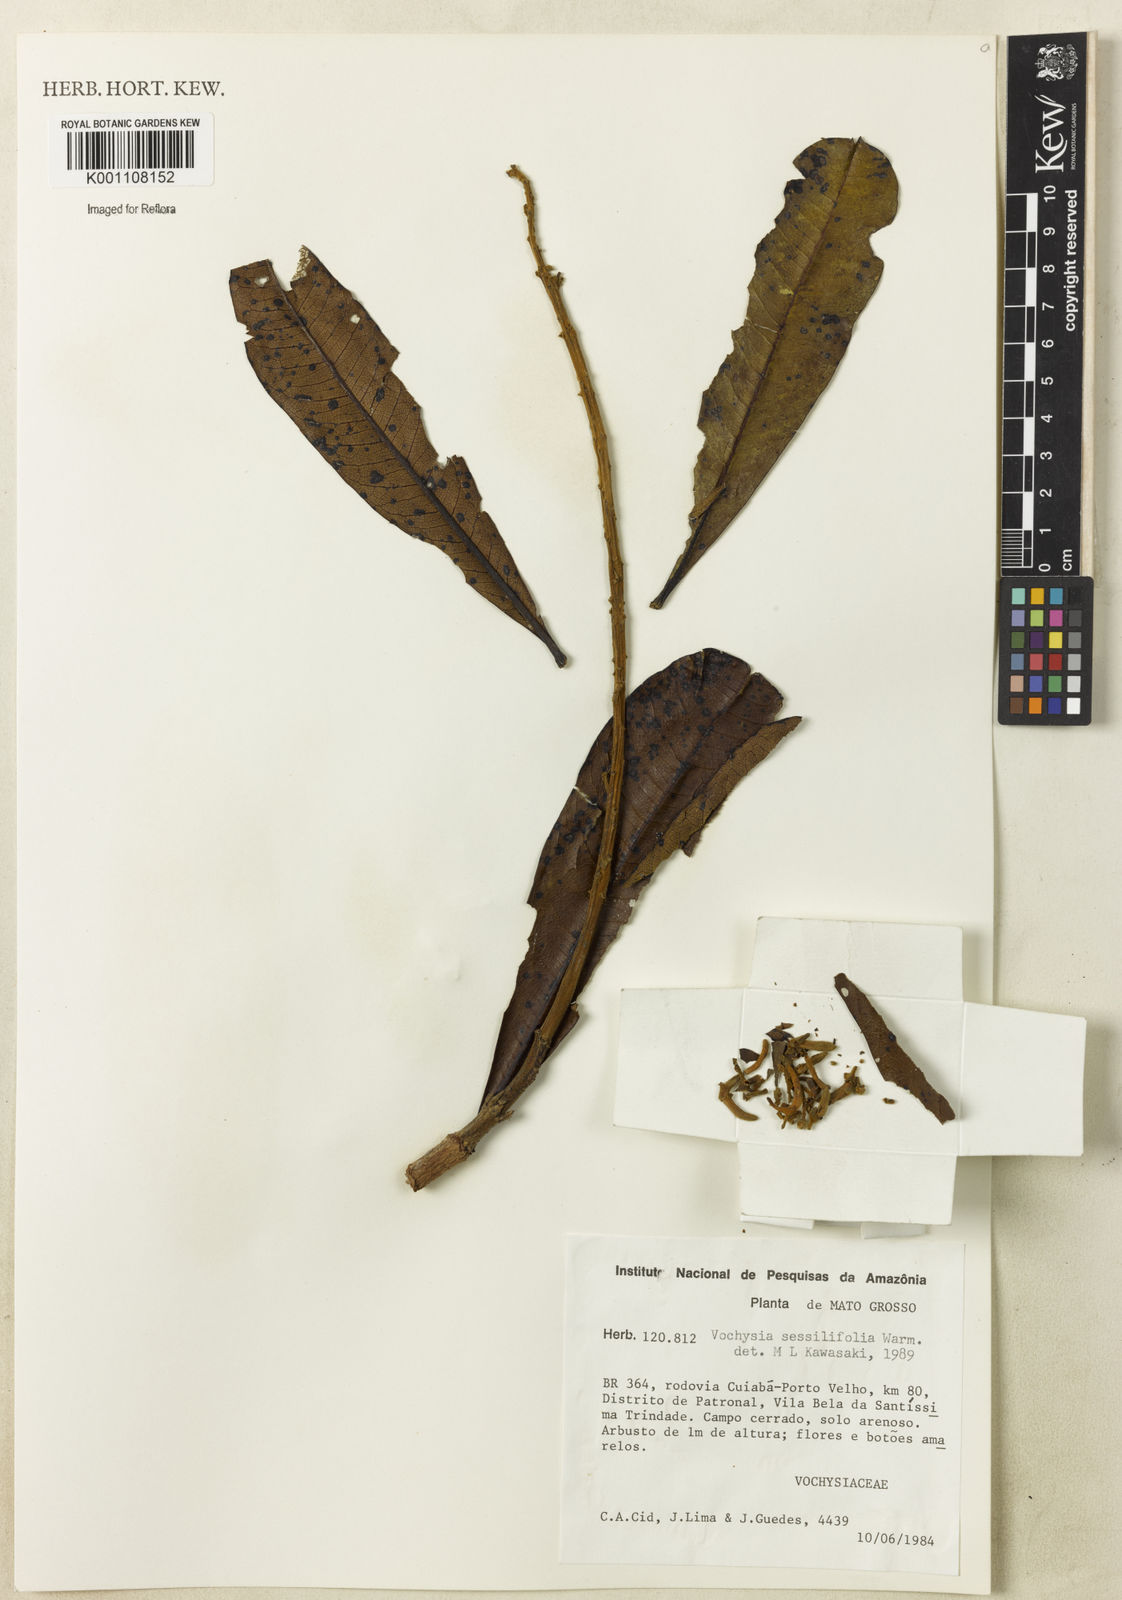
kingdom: Plantae
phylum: Tracheophyta
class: Magnoliopsida
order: Myrtales
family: Vochysiaceae
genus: Vochysia
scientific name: Vochysia sessilifolia
